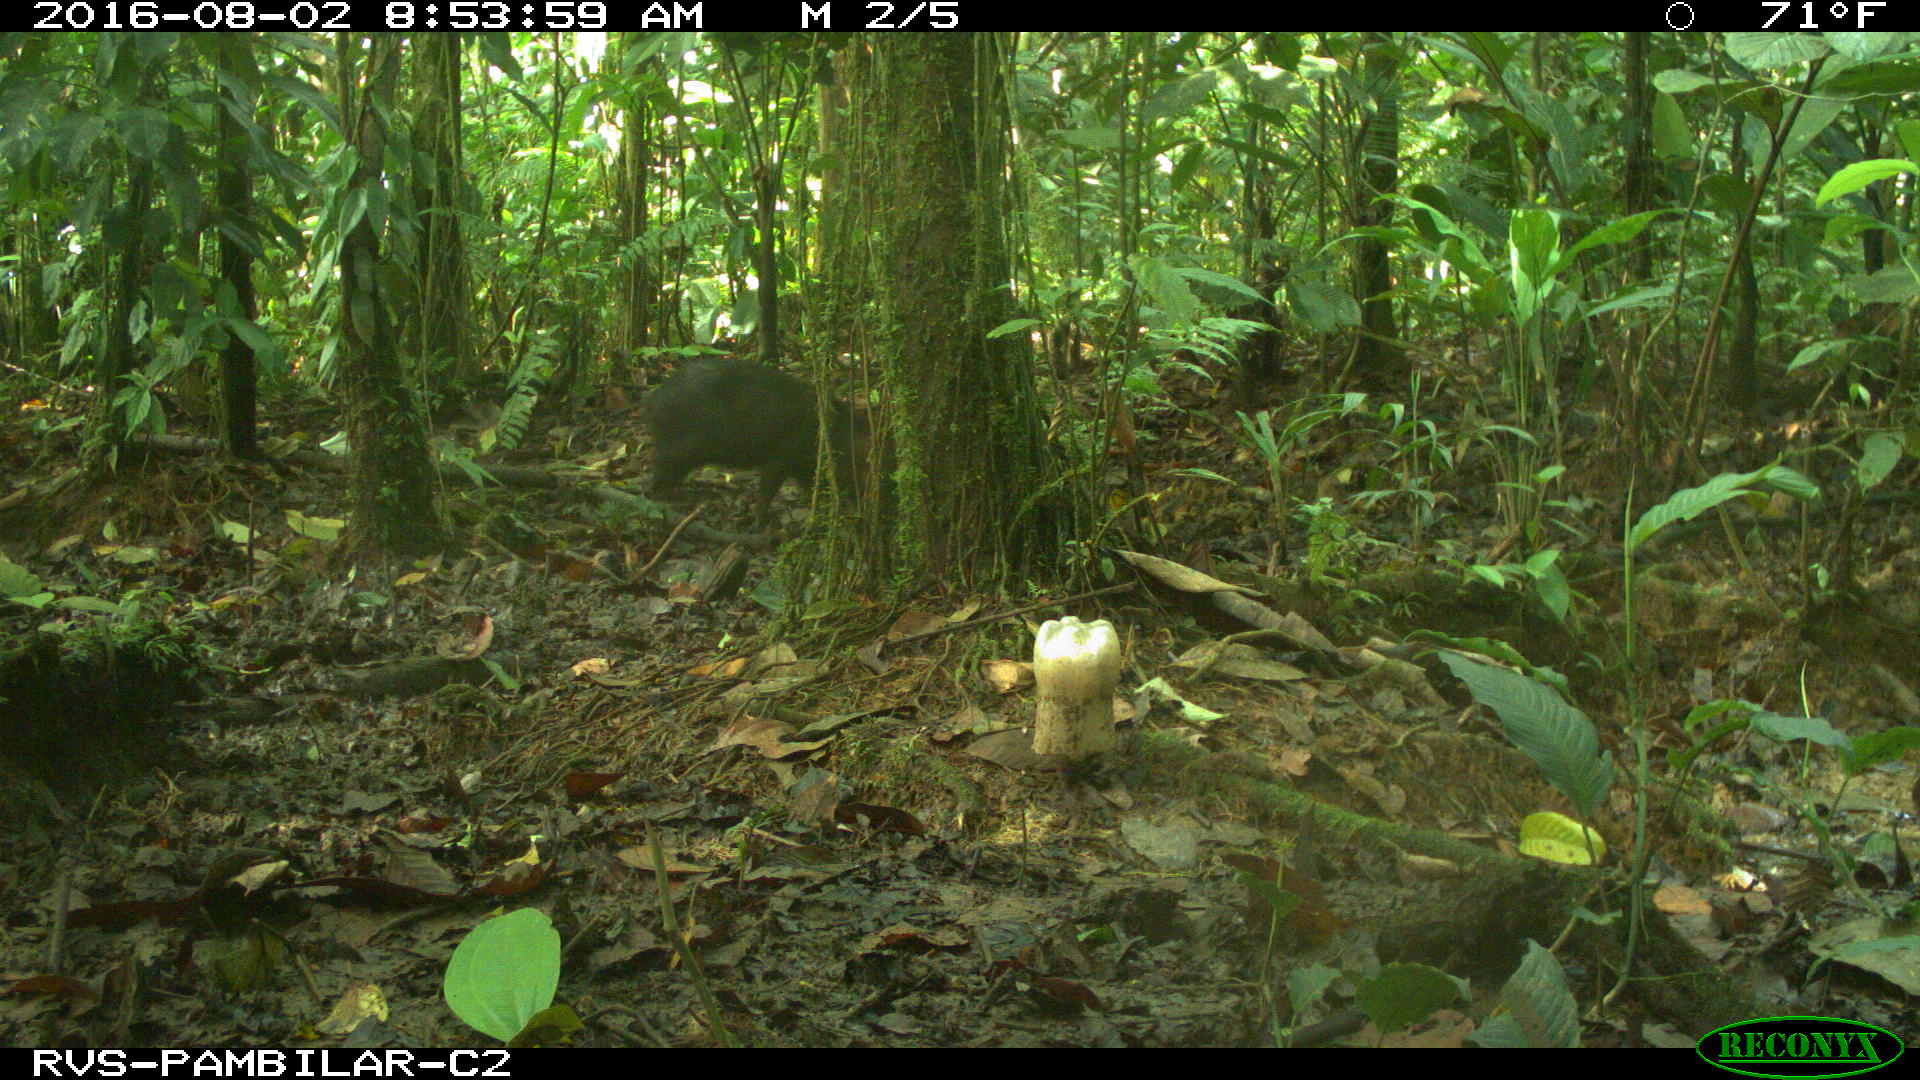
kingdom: Animalia
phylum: Chordata
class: Mammalia
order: Artiodactyla
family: Tayassuidae
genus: Pecari
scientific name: Pecari tajacu
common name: Collared peccary
